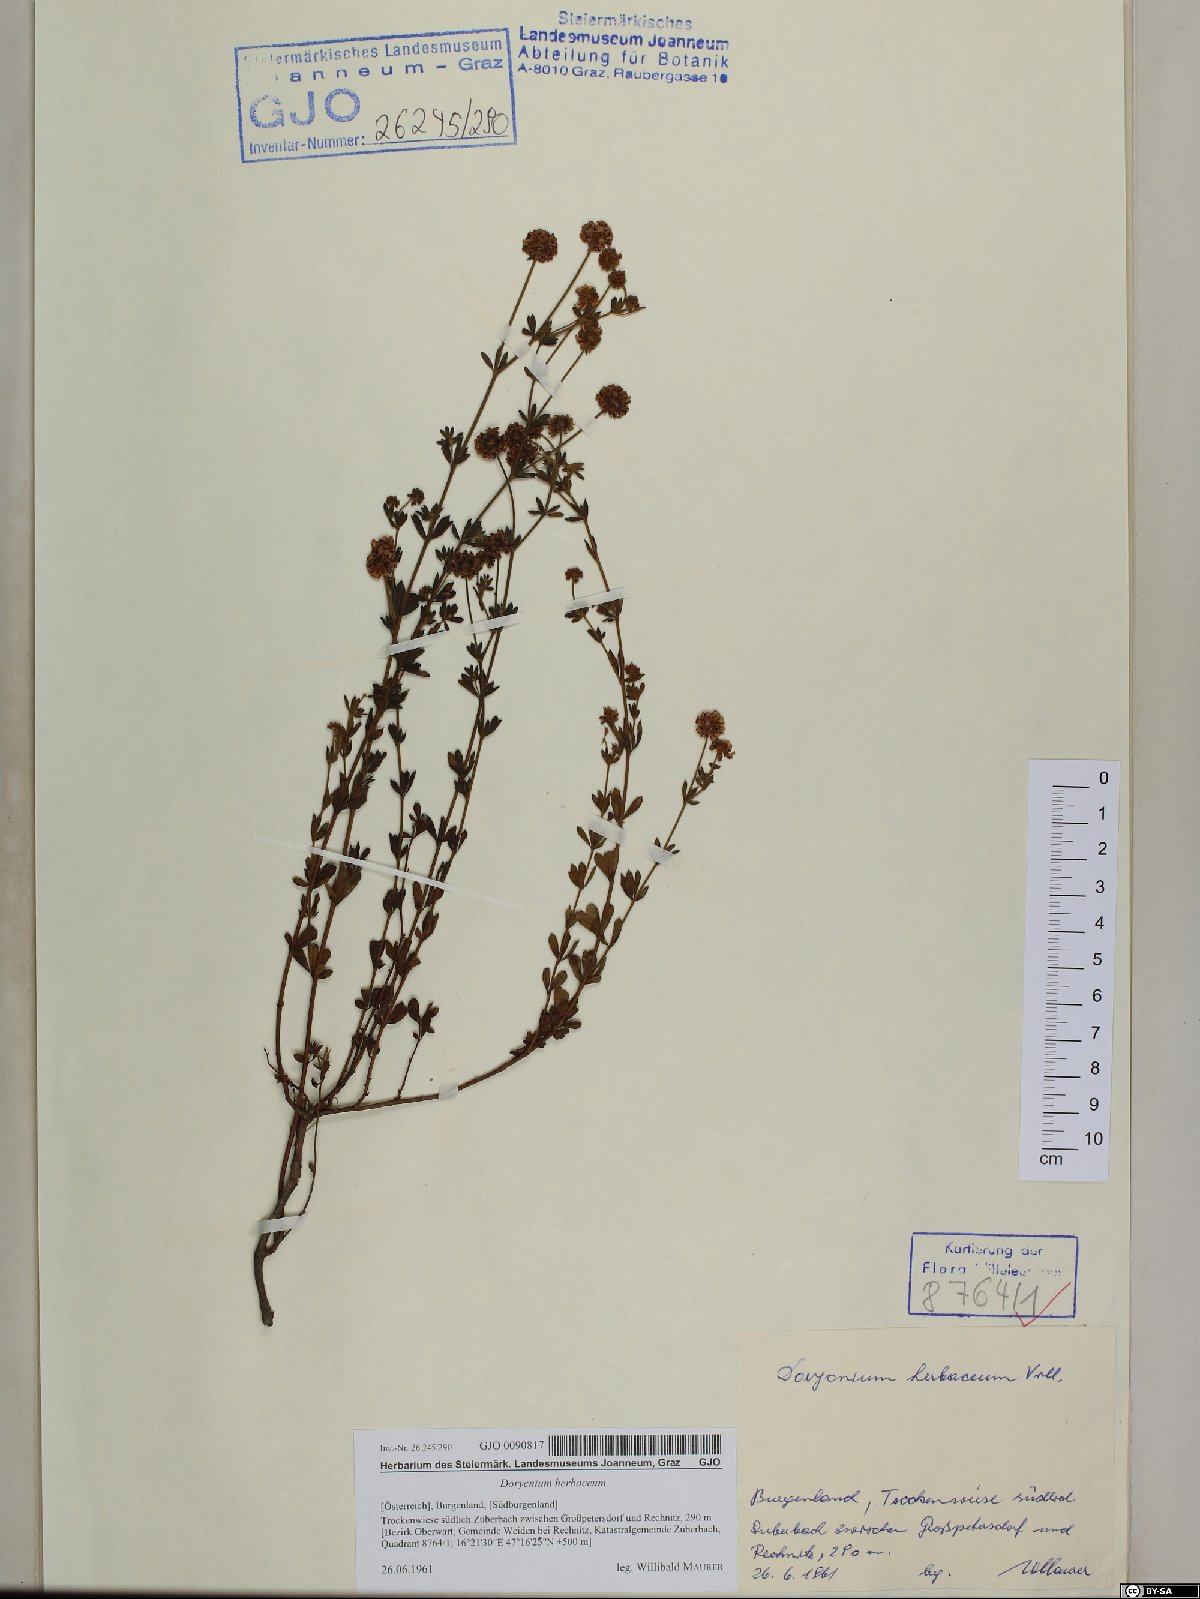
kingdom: Plantae
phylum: Tracheophyta
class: Magnoliopsida
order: Fabales
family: Fabaceae
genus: Lotus
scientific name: Lotus herbaceus
